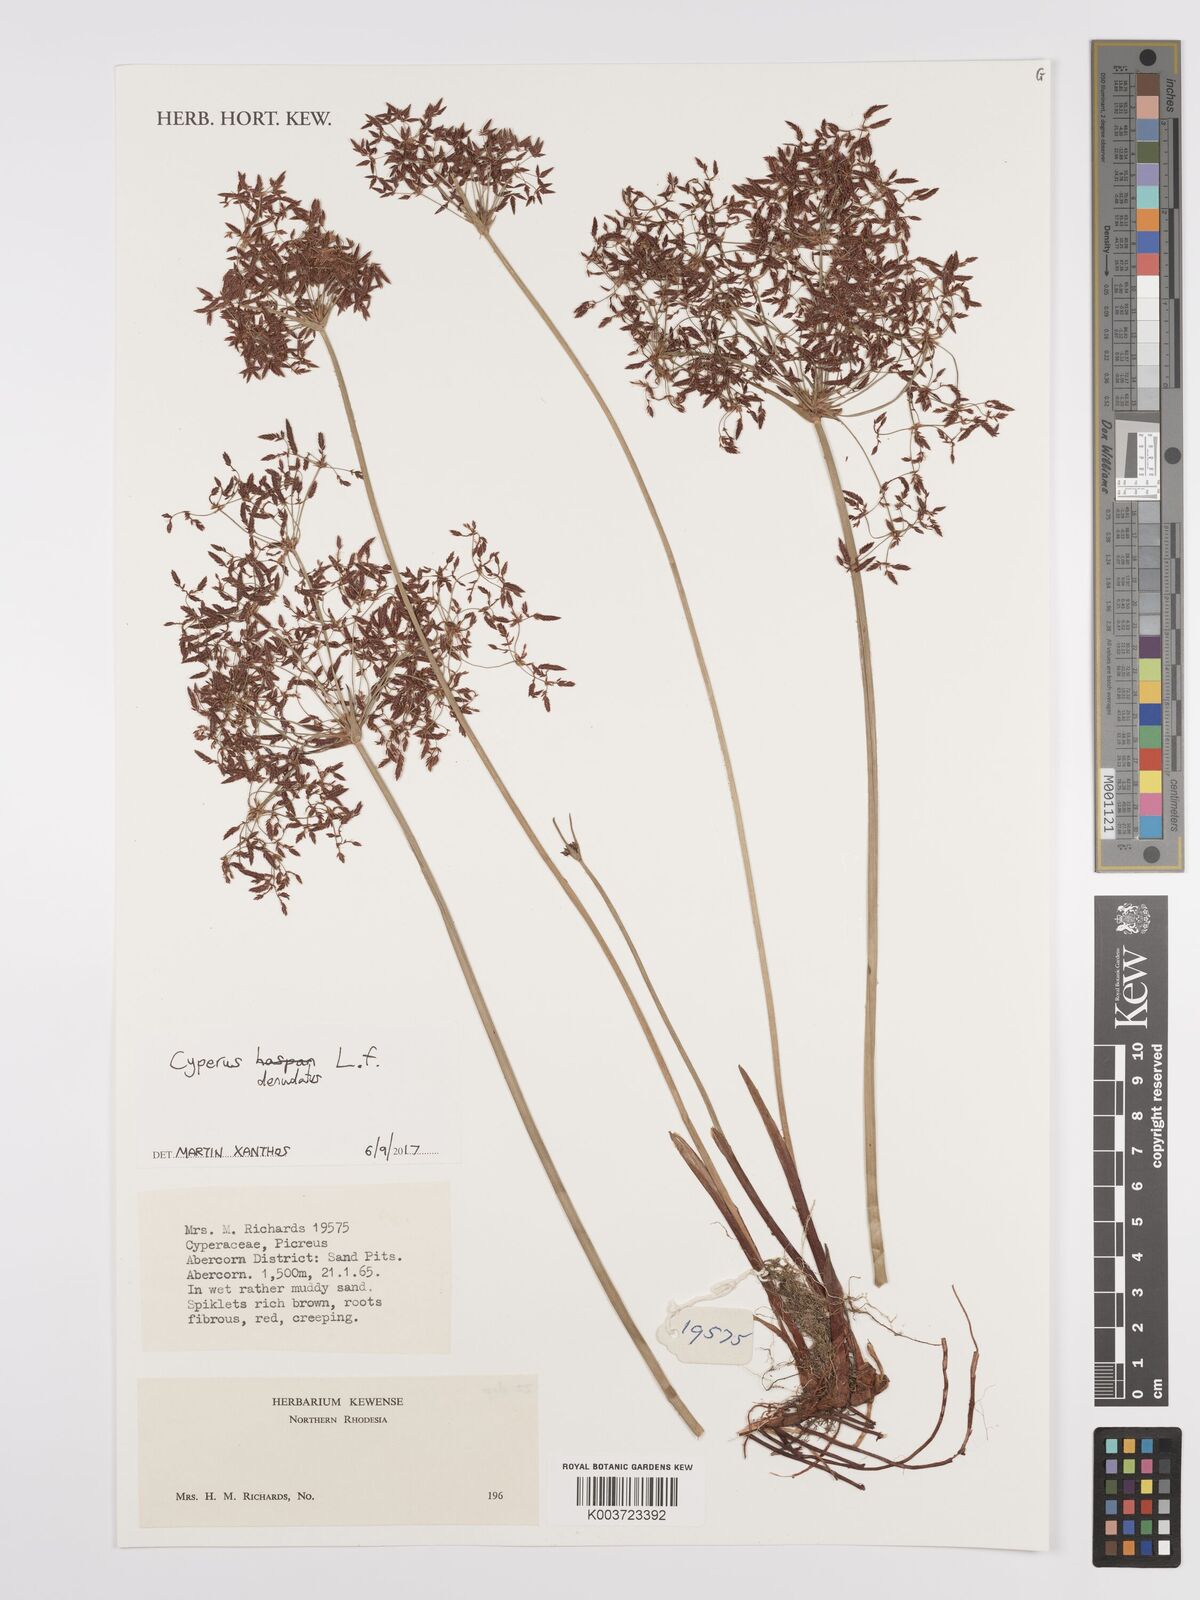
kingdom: Plantae
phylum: Tracheophyta
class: Liliopsida
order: Poales
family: Cyperaceae
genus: Cyperus
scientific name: Cyperus denudatus
